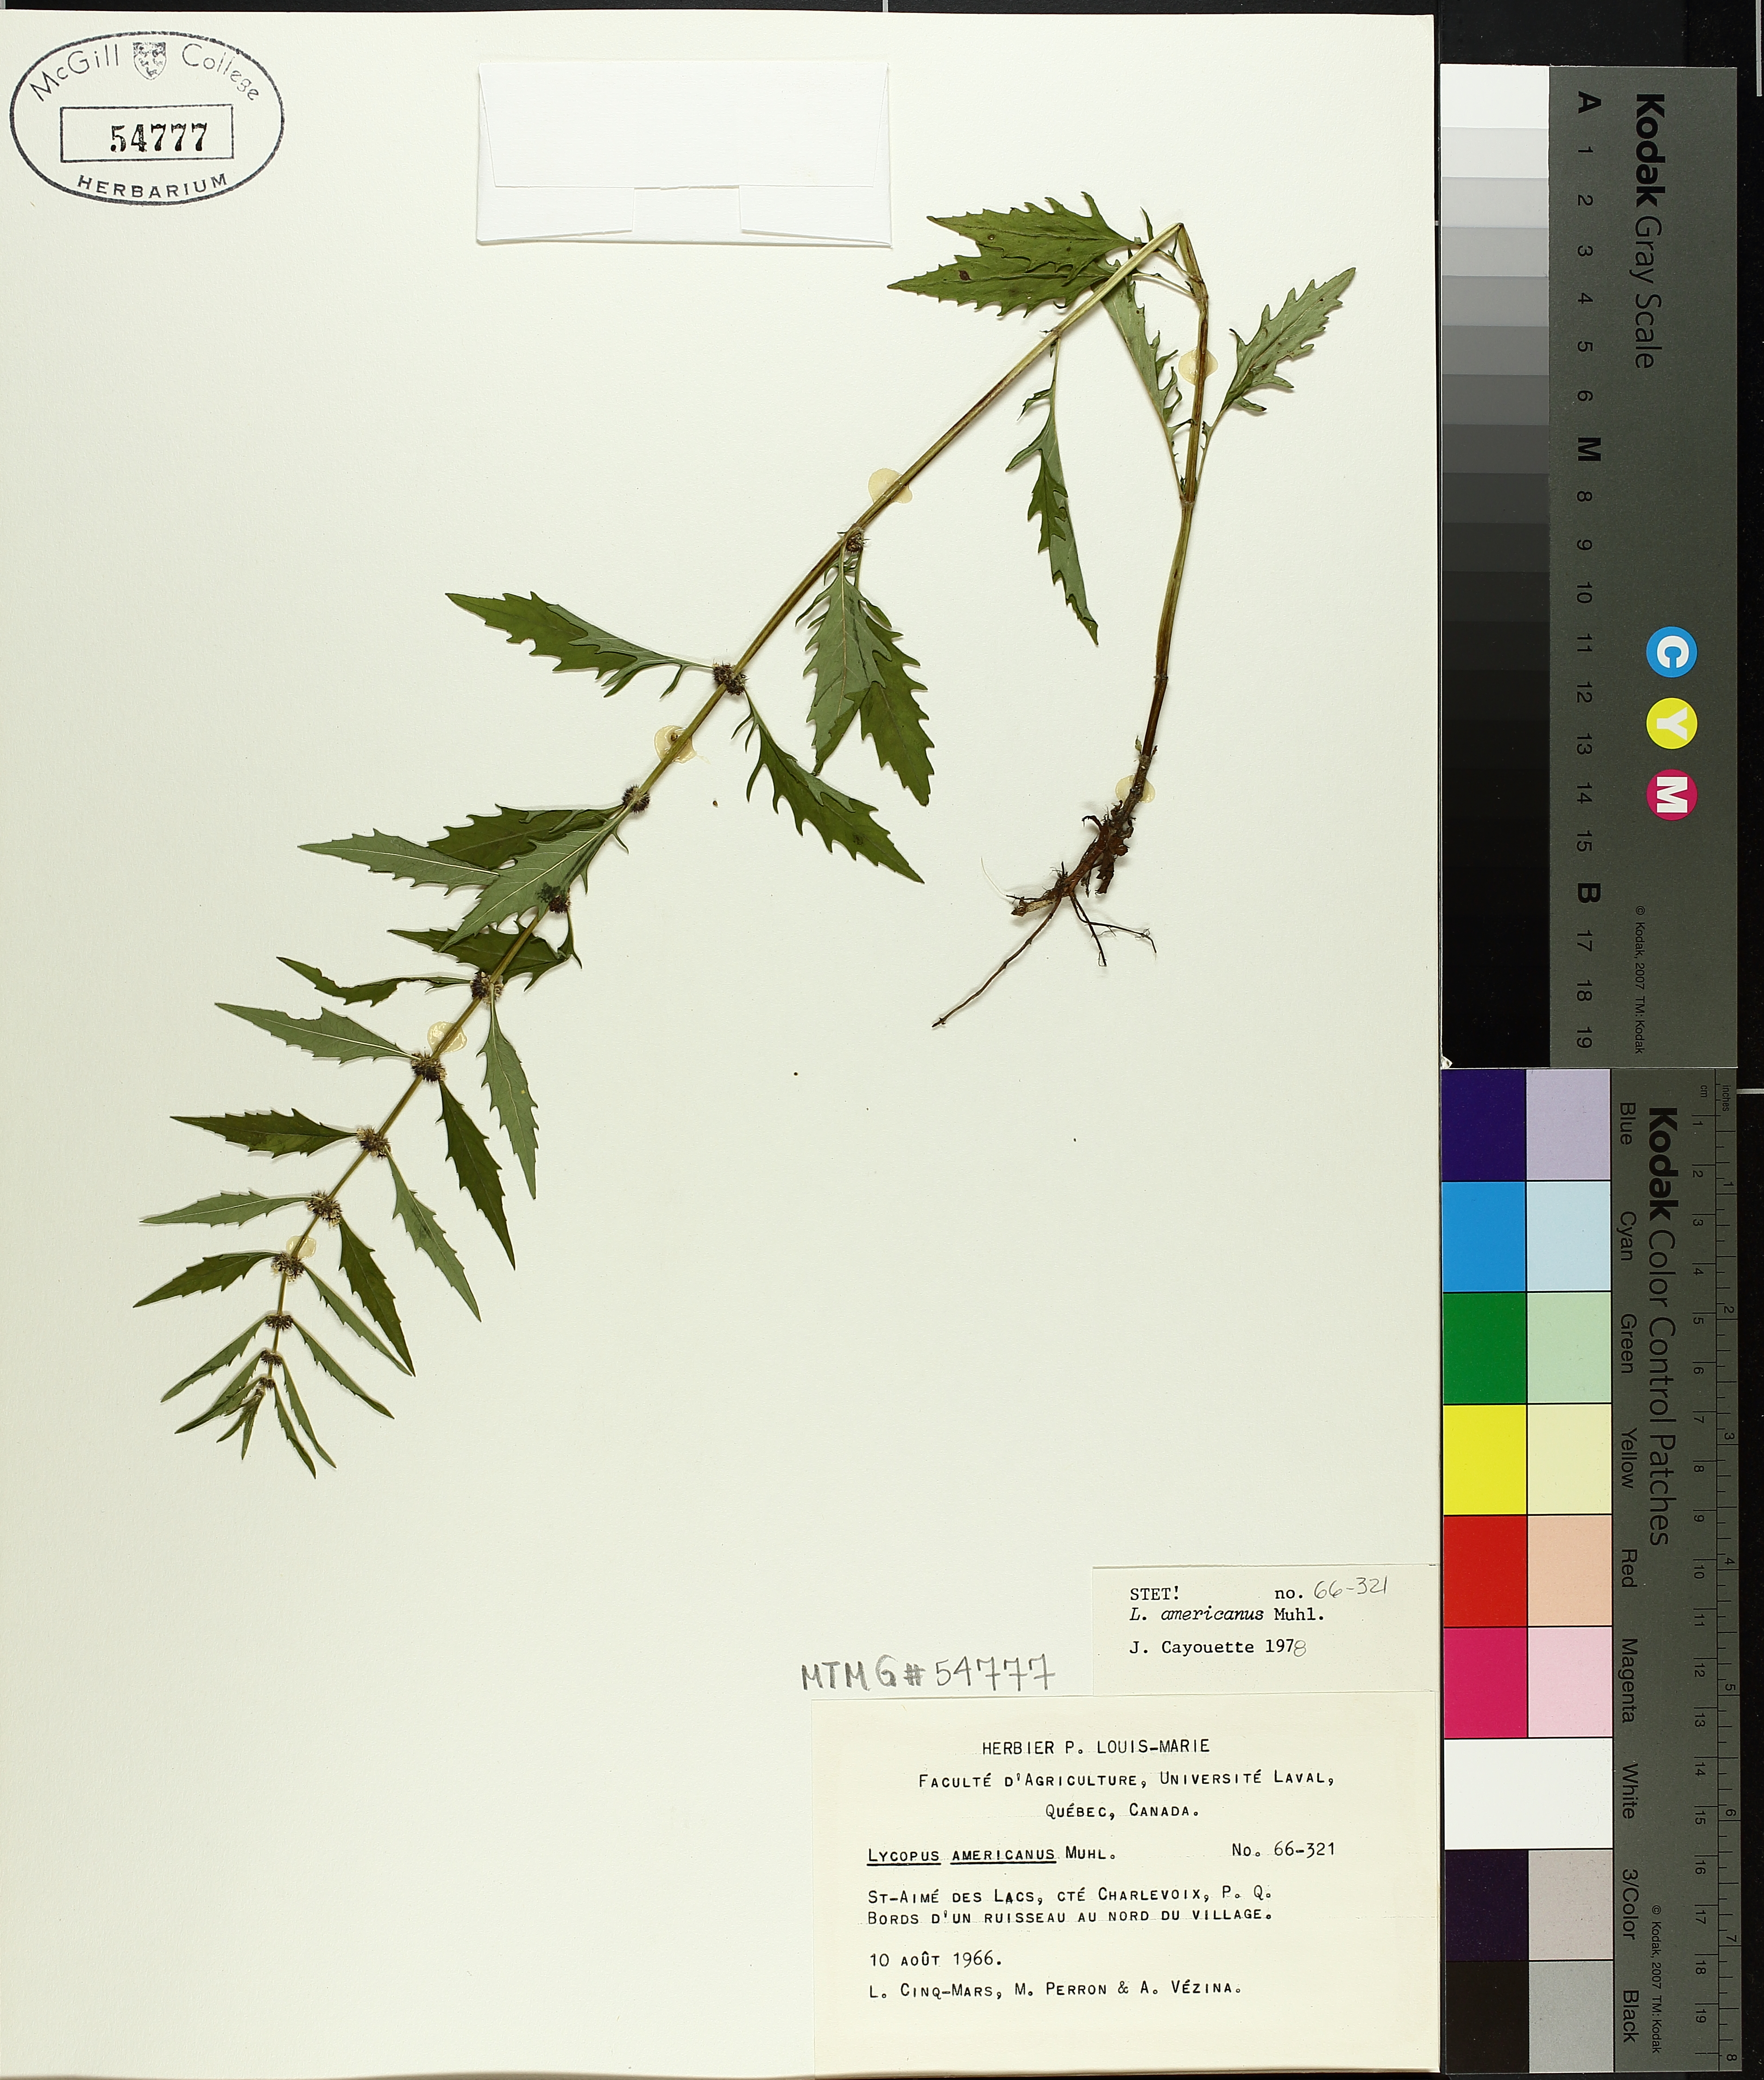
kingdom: Plantae
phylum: Tracheophyta
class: Magnoliopsida
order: Lamiales
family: Lamiaceae
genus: Lycopus
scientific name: Lycopus americanus
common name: American bugleweed
